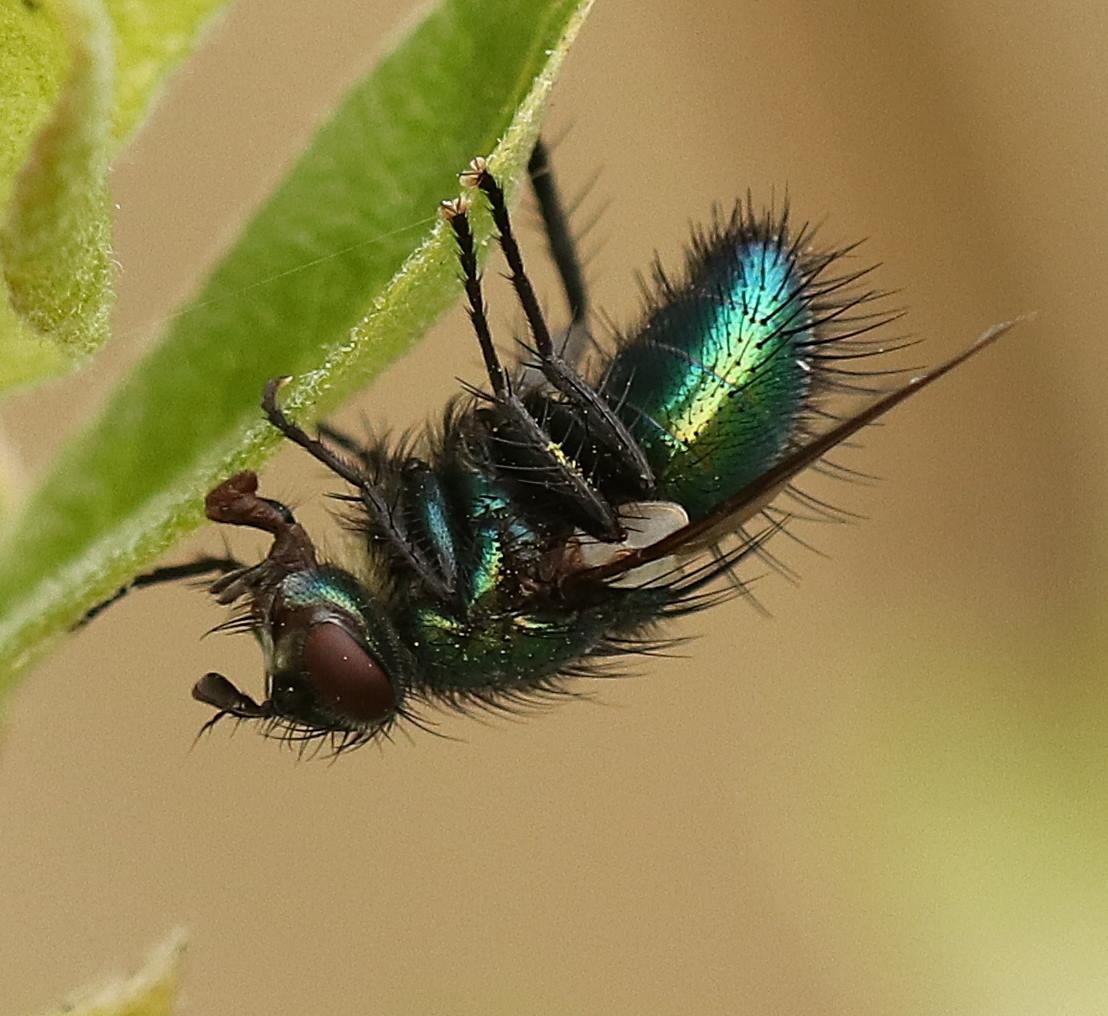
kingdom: Animalia
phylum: Arthropoda
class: Insecta
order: Diptera
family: Tachinidae
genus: Gymnocheta
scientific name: Gymnocheta viridis
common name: Grøn snylteflue
